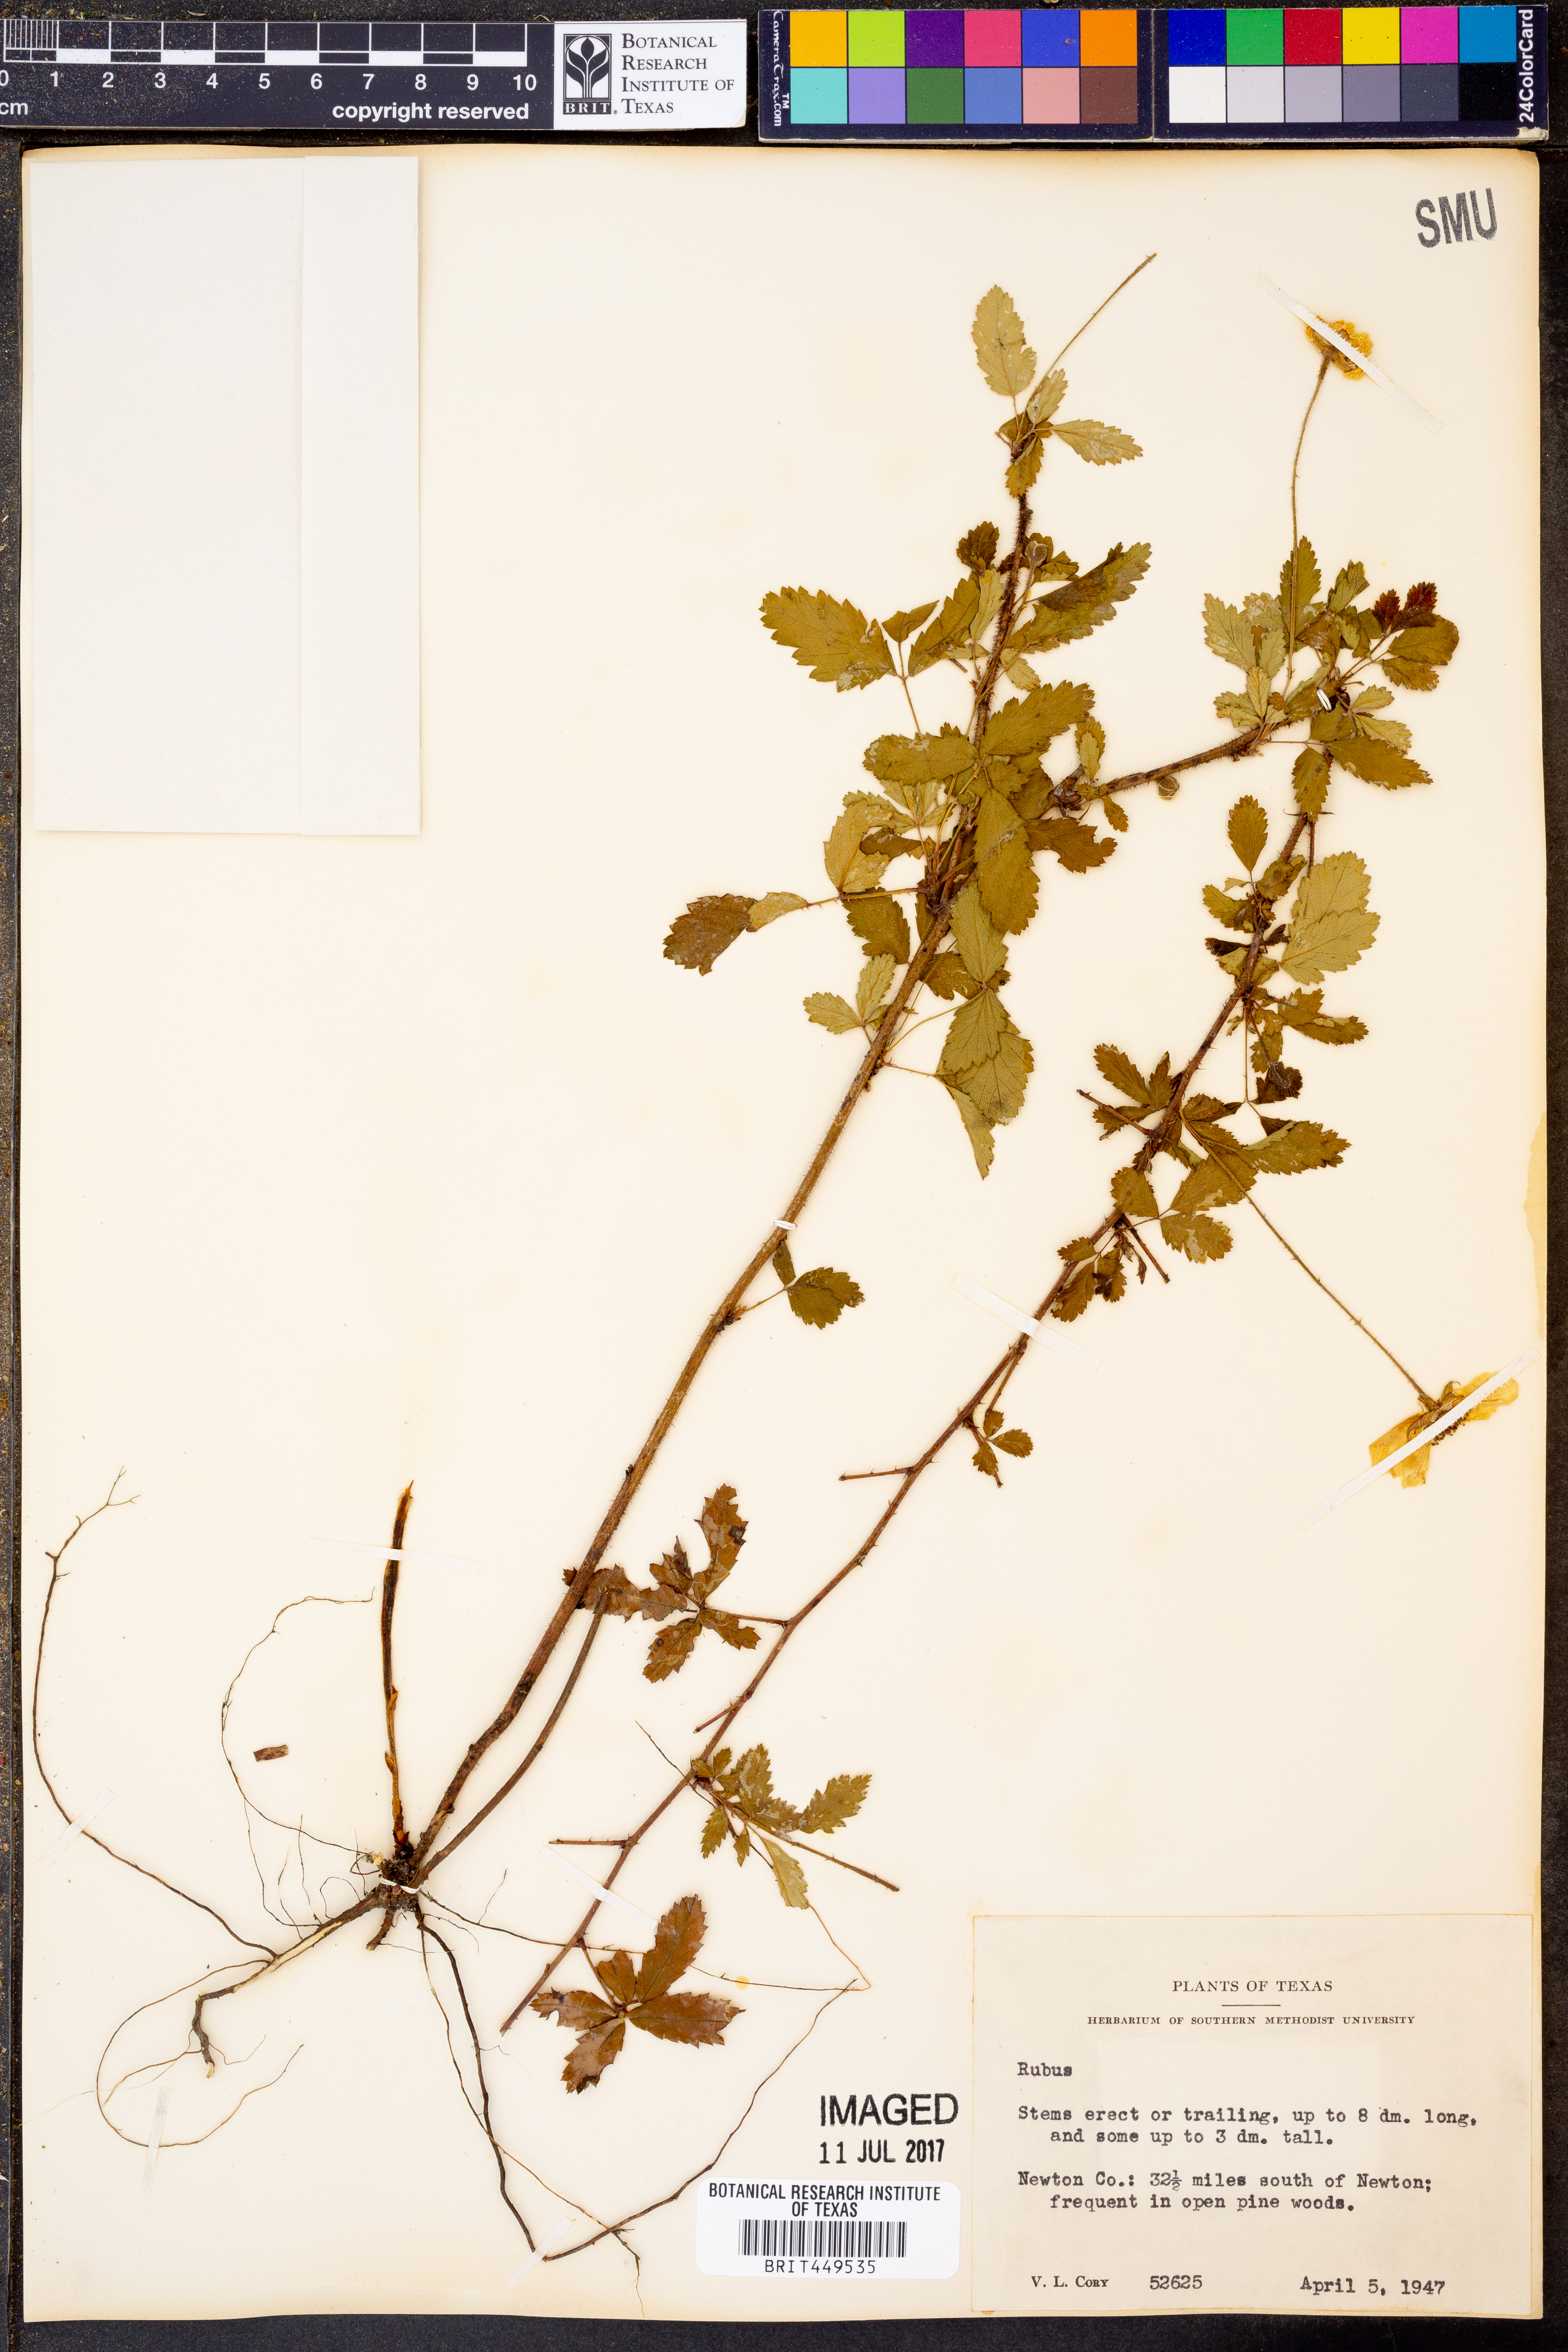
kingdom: Plantae
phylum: Tracheophyta
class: Magnoliopsida
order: Rosales
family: Rosaceae
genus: Rubus
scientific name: Rubus
